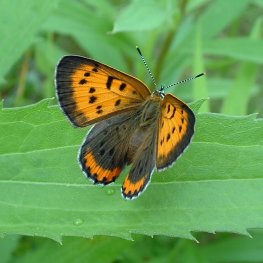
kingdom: Animalia
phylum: Arthropoda
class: Insecta
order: Lepidoptera
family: Sesiidae
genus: Sesia
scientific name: Sesia Lycaena hyllus
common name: Bronze Copper
